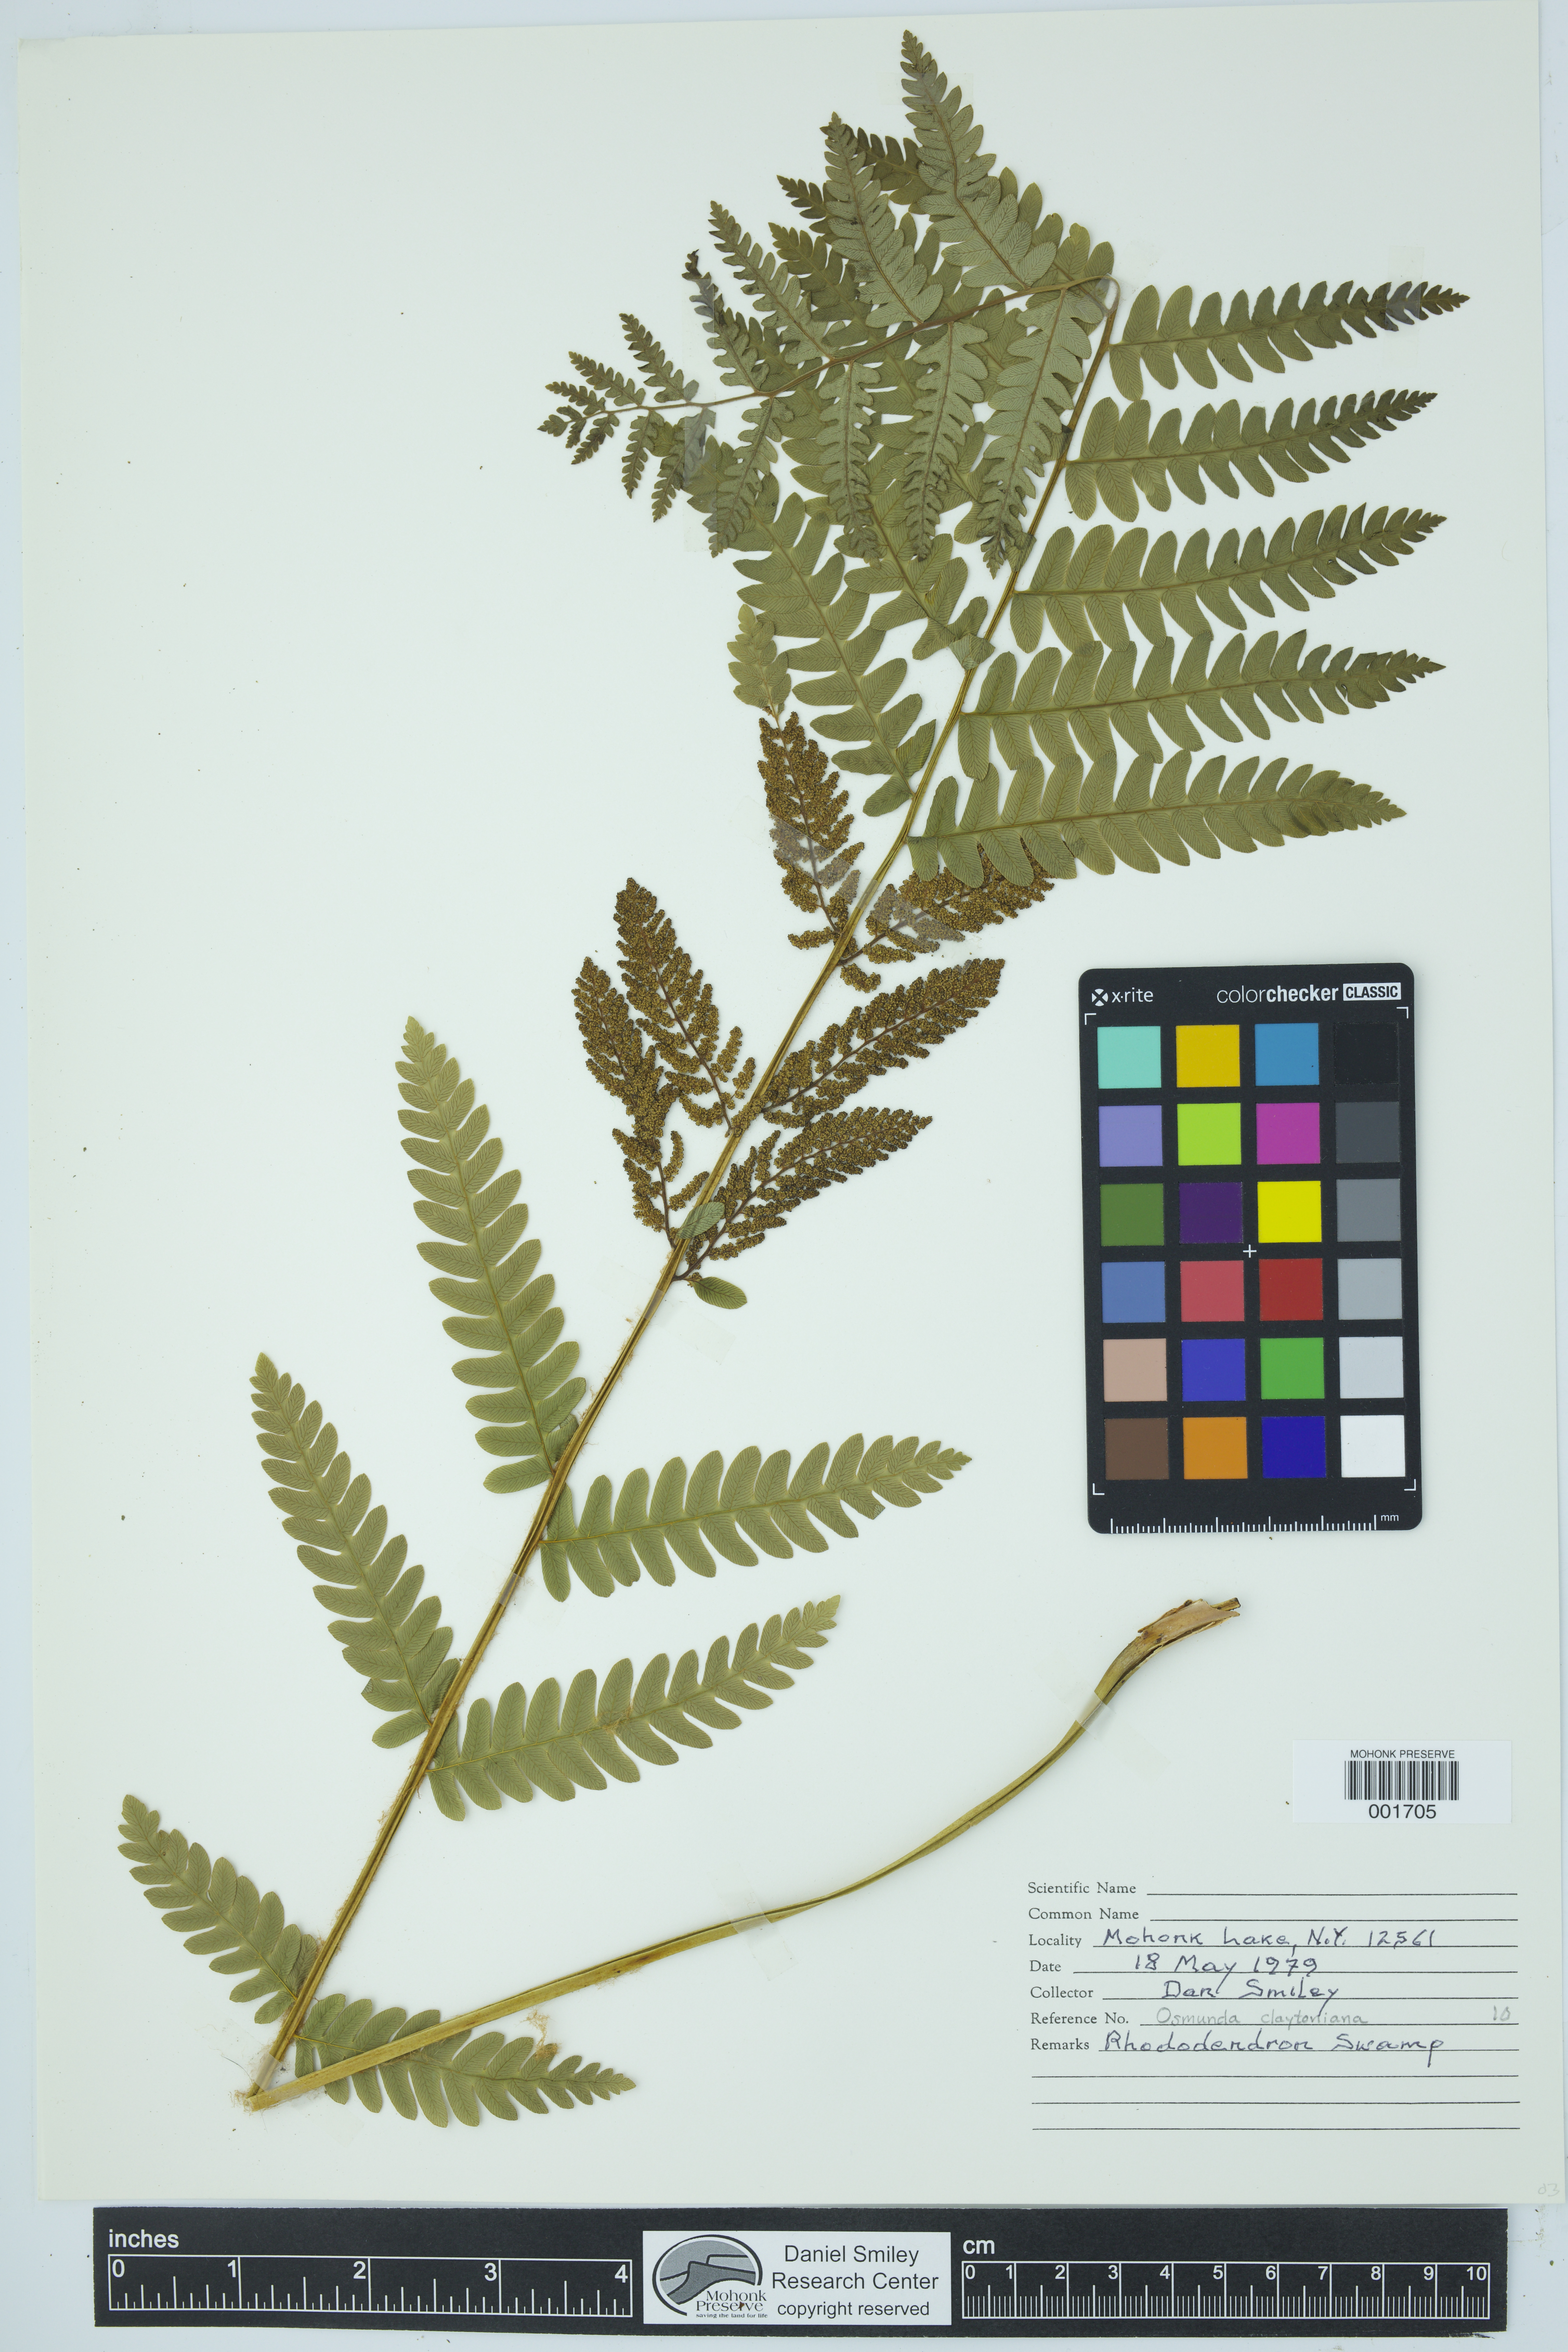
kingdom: Plantae
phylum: Tracheophyta
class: Polypodiopsida
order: Osmundales
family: Osmundaceae
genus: Claytosmunda
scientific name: Claytosmunda claytoniana
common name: Clayton's fern
